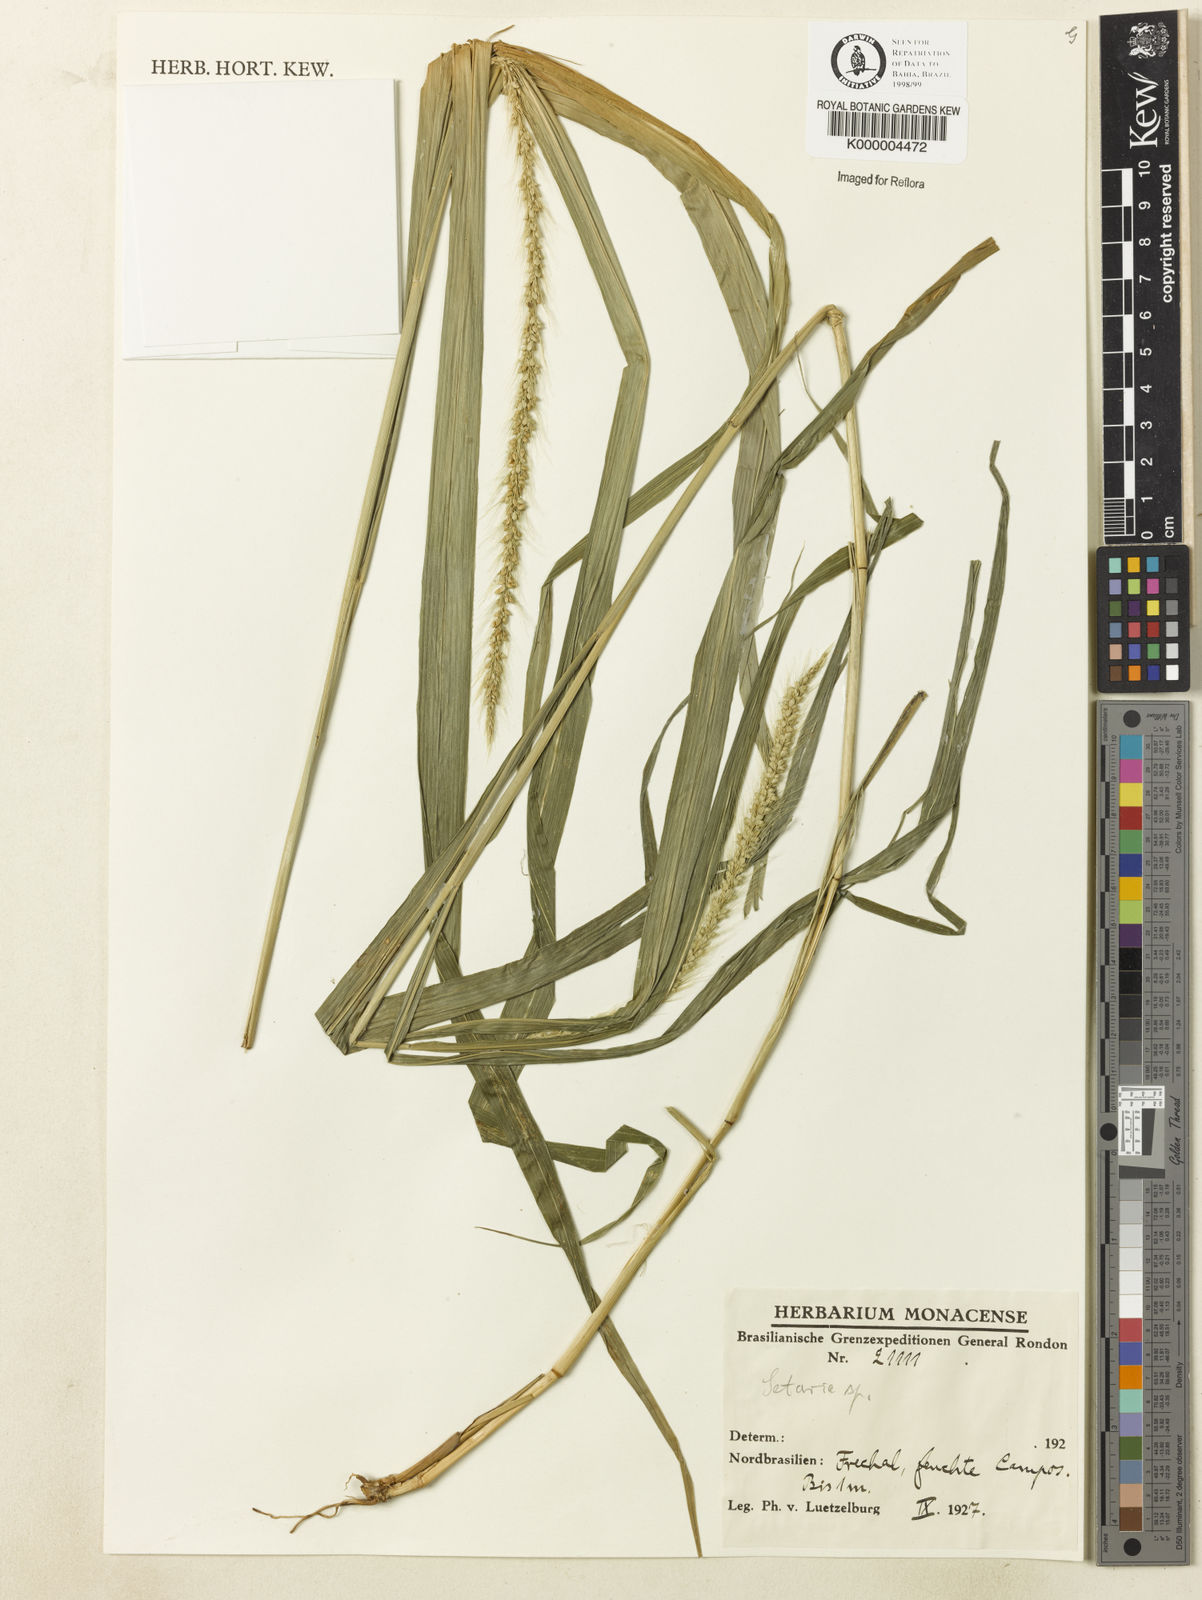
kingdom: Plantae
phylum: Tracheophyta
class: Liliopsida
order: Poales
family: Poaceae
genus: Setaria
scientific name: Setaria setosa
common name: West indies bristle grass
